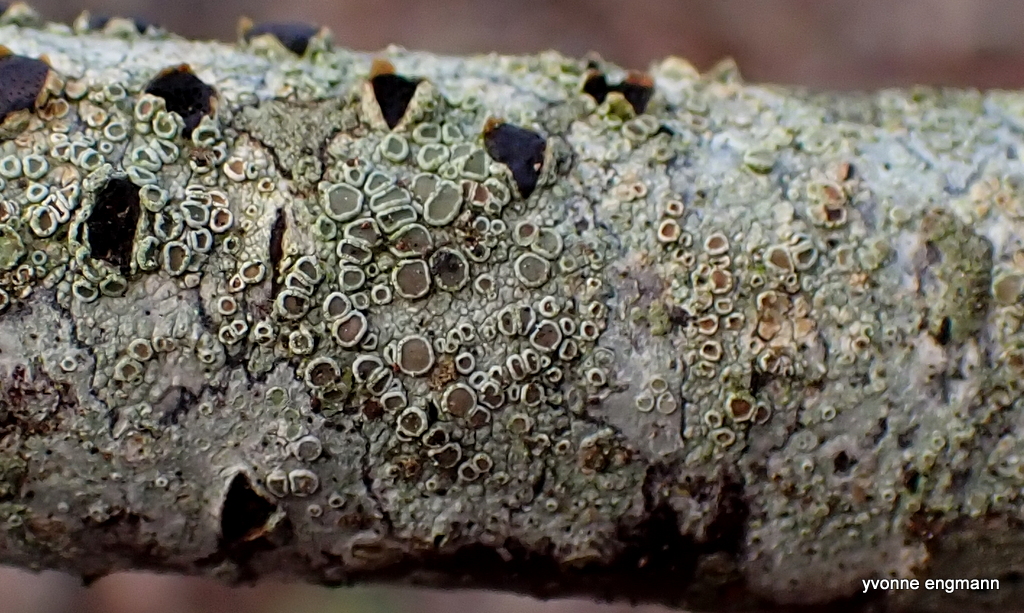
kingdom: Fungi
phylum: Ascomycota
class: Lecanoromycetes
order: Lecanorales
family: Lecanoraceae
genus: Lecanora
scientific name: Lecanora chlarotera
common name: brun kantskivelav
